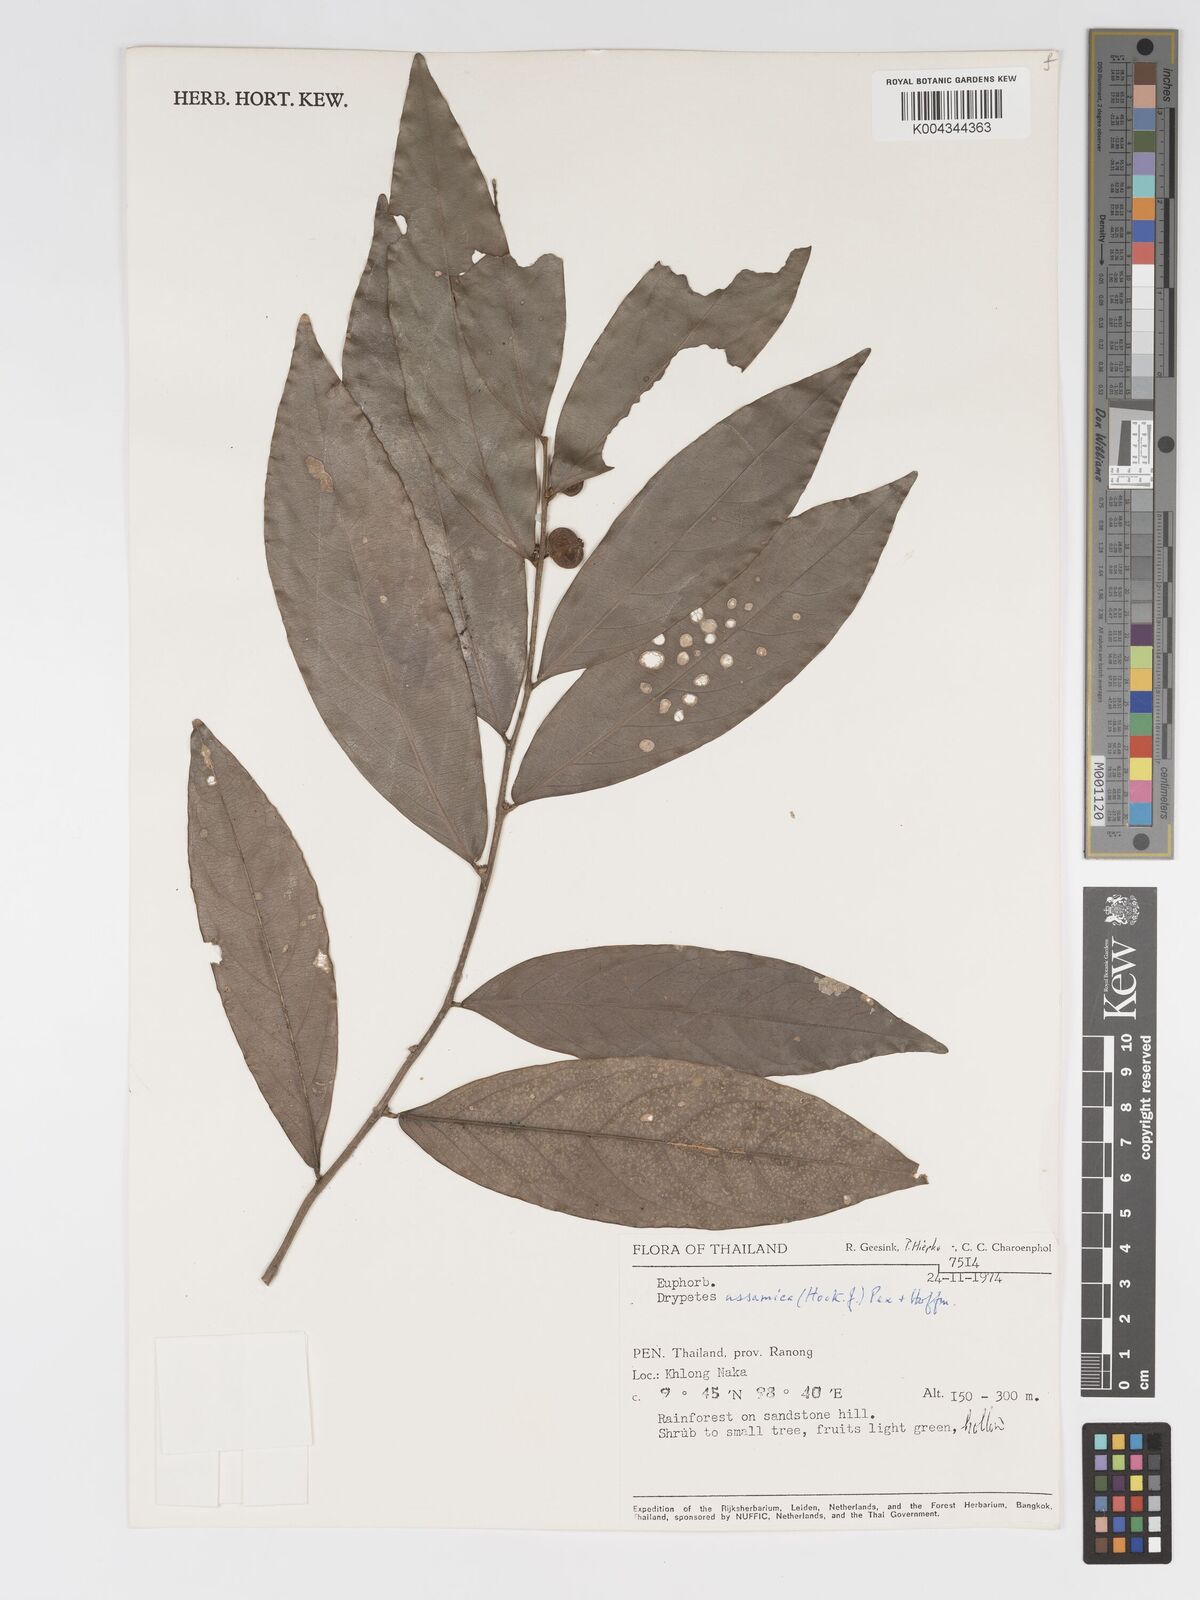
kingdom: Plantae
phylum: Tracheophyta
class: Magnoliopsida
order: Malpighiales
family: Putranjivaceae
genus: Drypetes
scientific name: Drypetes assamica
